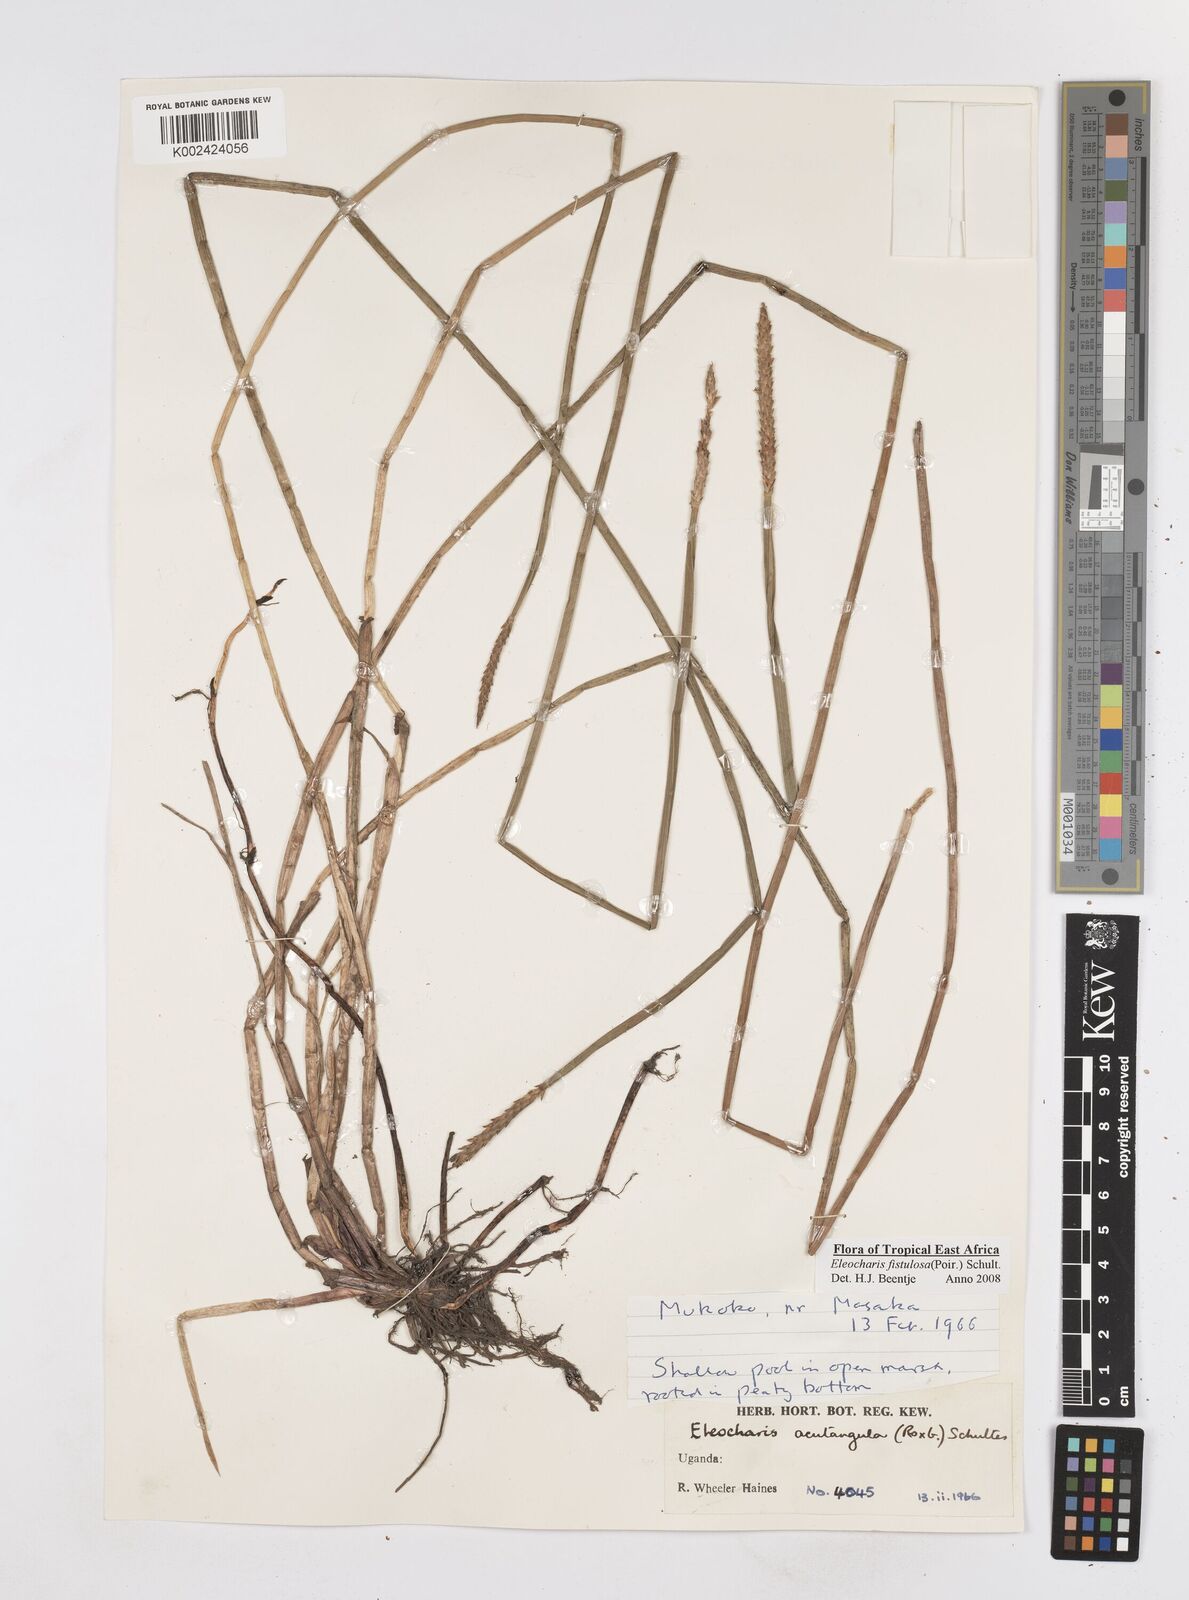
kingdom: Plantae
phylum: Tracheophyta
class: Liliopsida
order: Poales
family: Cyperaceae
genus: Eleocharis
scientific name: Eleocharis acutangula
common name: Acute spikerush
